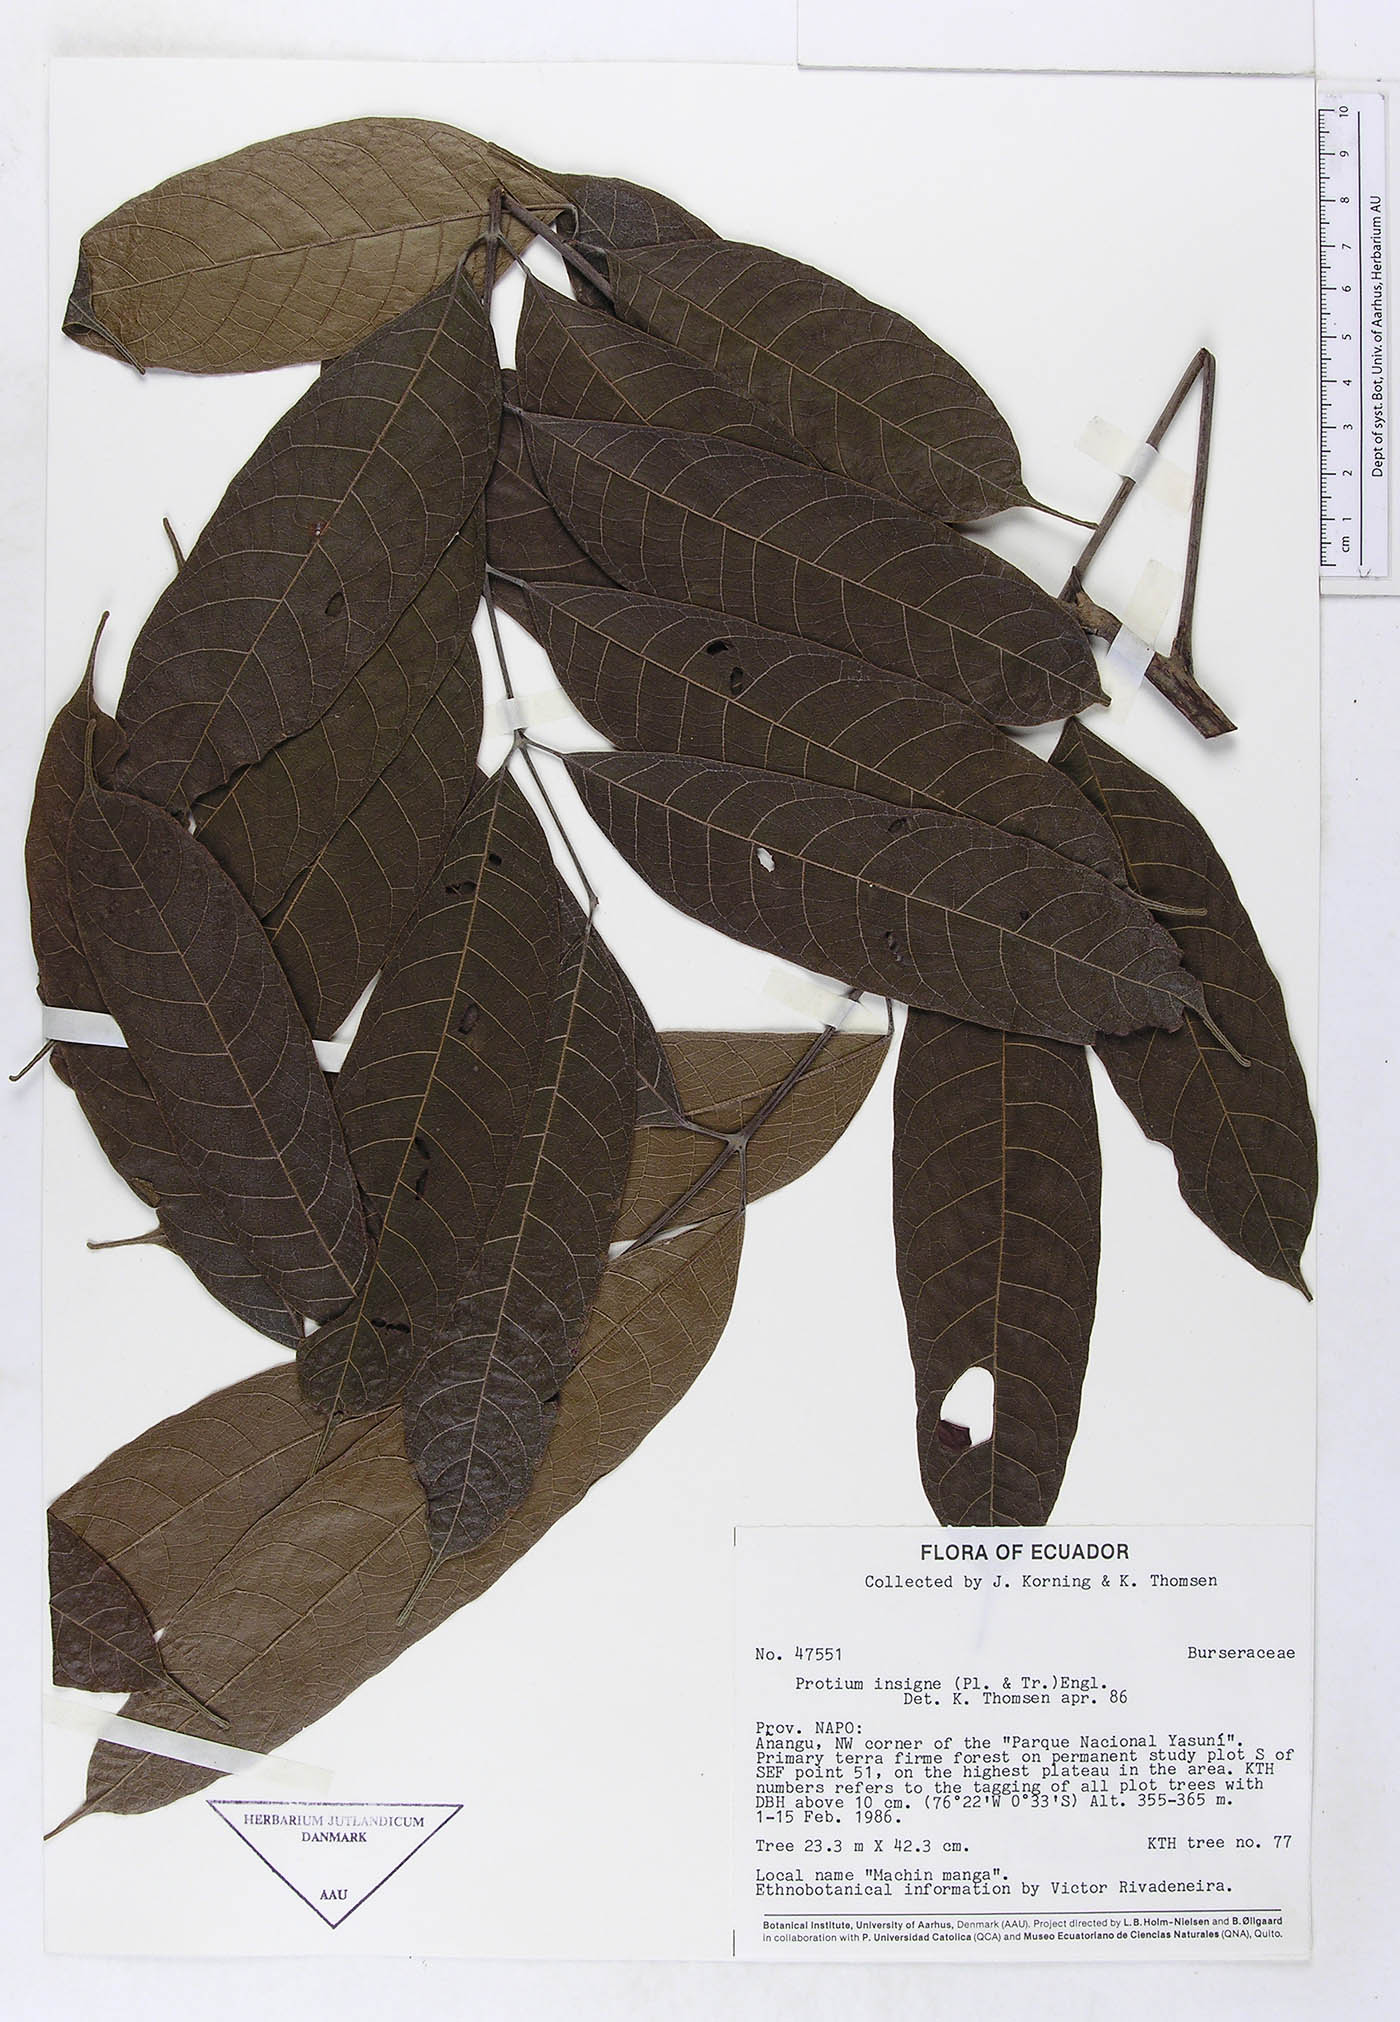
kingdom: Plantae
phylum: Tracheophyta
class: Magnoliopsida
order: Sapindales
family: Burseraceae
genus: Protium
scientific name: Protium sagotianum
